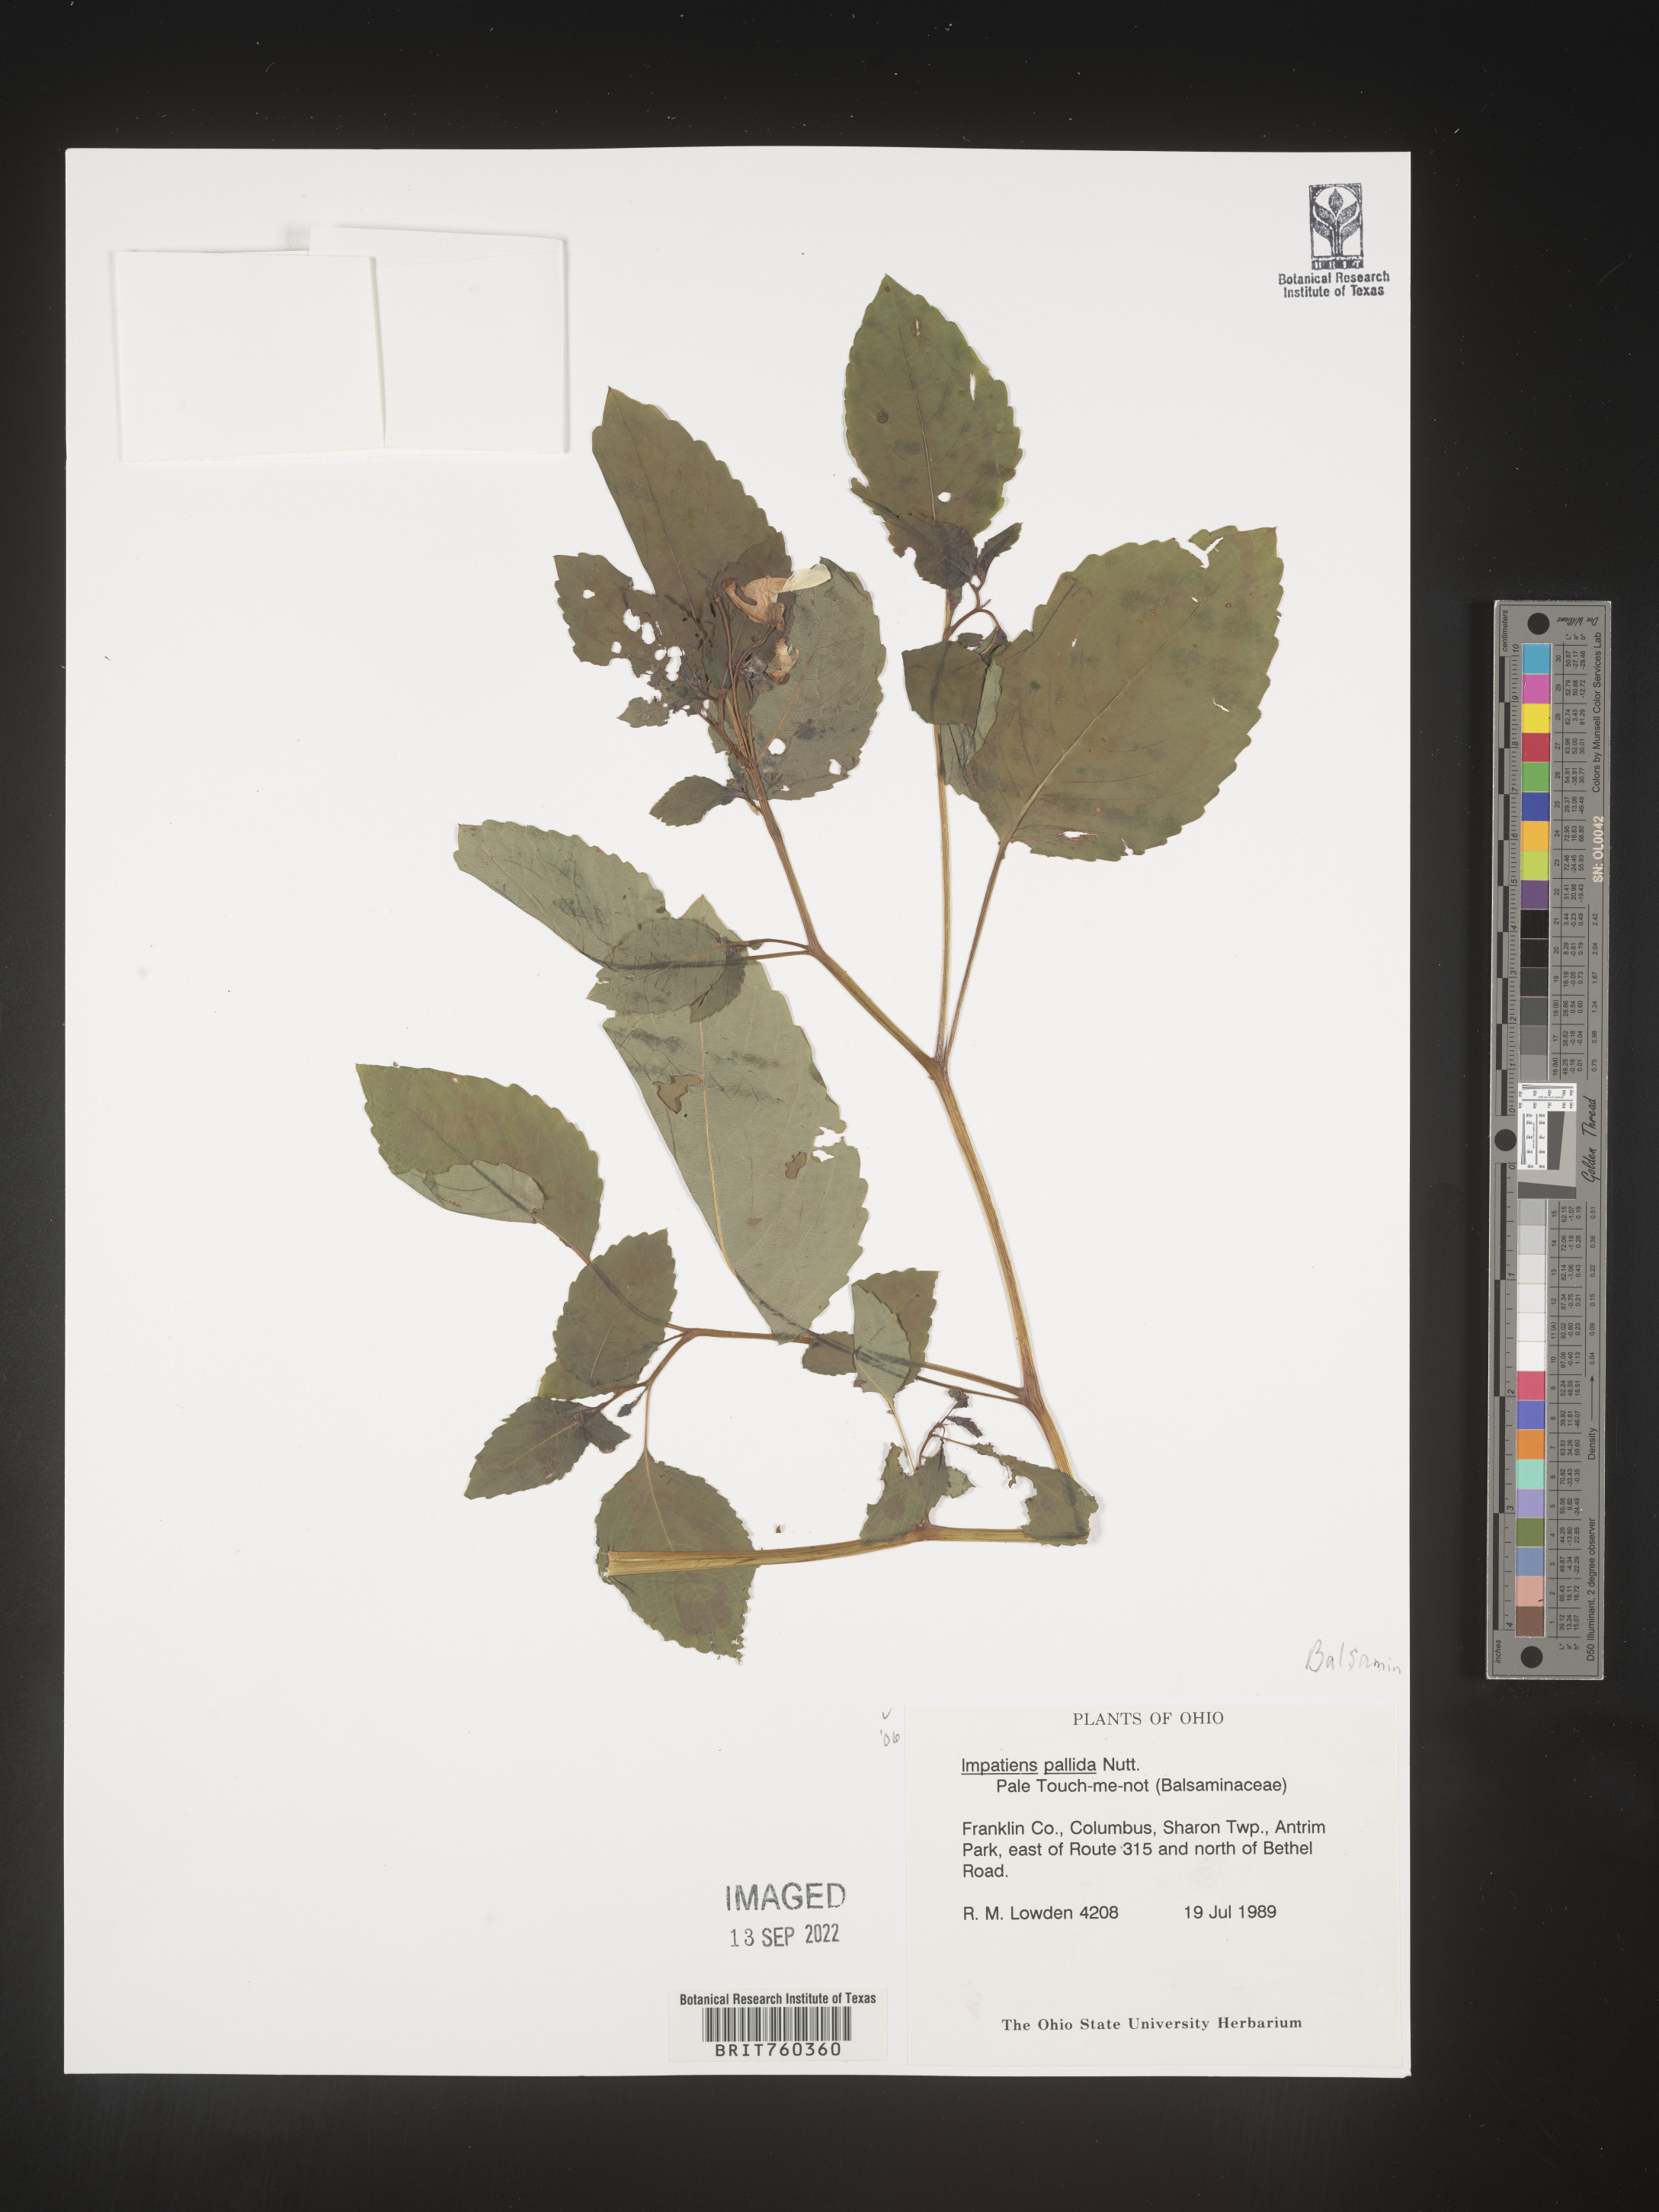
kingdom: Plantae
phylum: Tracheophyta
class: Magnoliopsida
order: Ericales
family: Balsaminaceae
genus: Impatiens
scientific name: Impatiens
